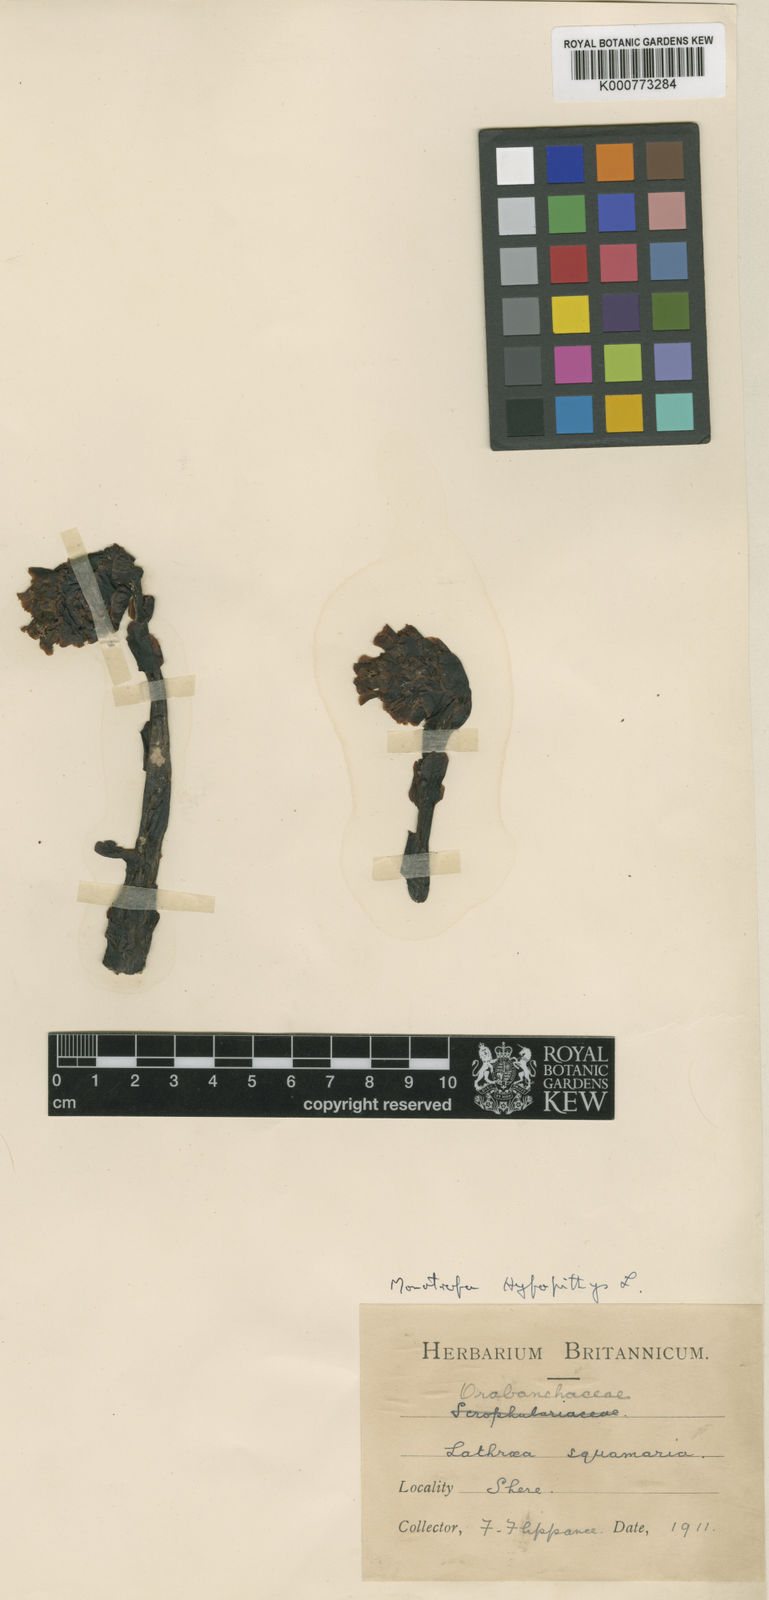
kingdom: Plantae
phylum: Tracheophyta
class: Magnoliopsida
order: Ericales
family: Ericaceae
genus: Monotropa
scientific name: Monotropa
